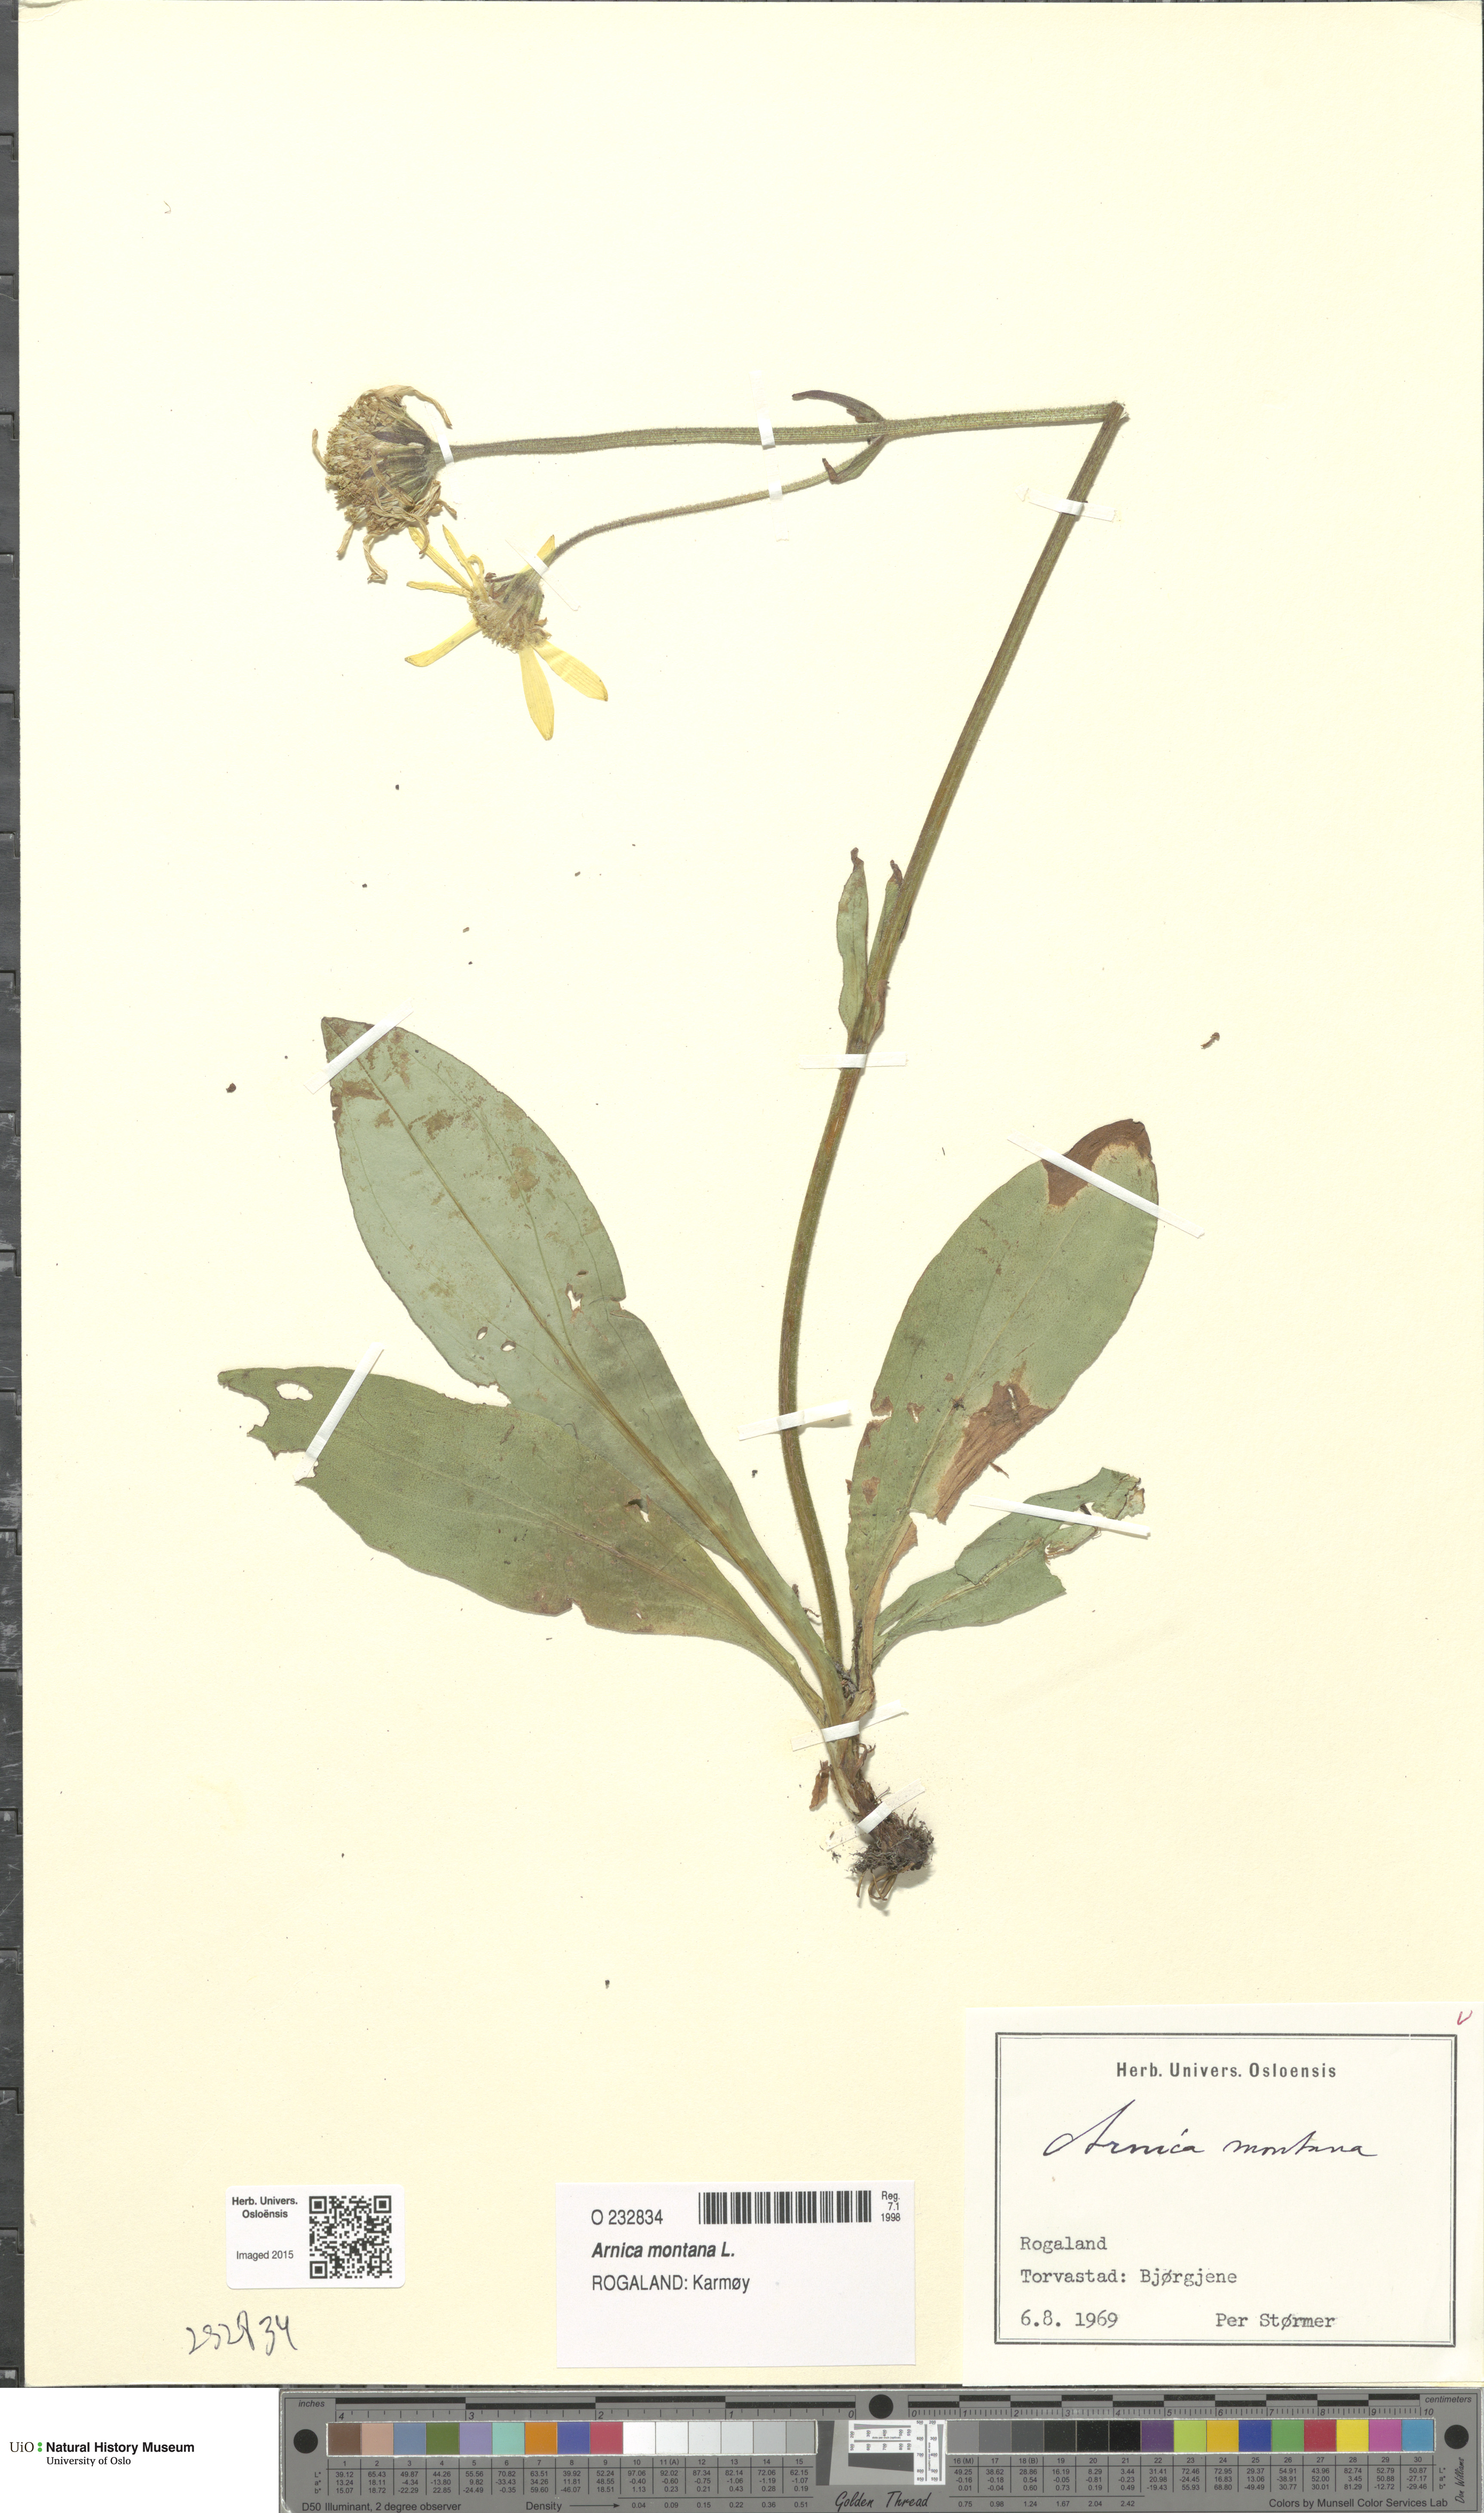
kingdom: Plantae
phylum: Tracheophyta
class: Magnoliopsida
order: Asterales
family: Asteraceae
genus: Arnica
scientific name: Arnica montana
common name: Leopard's bane
